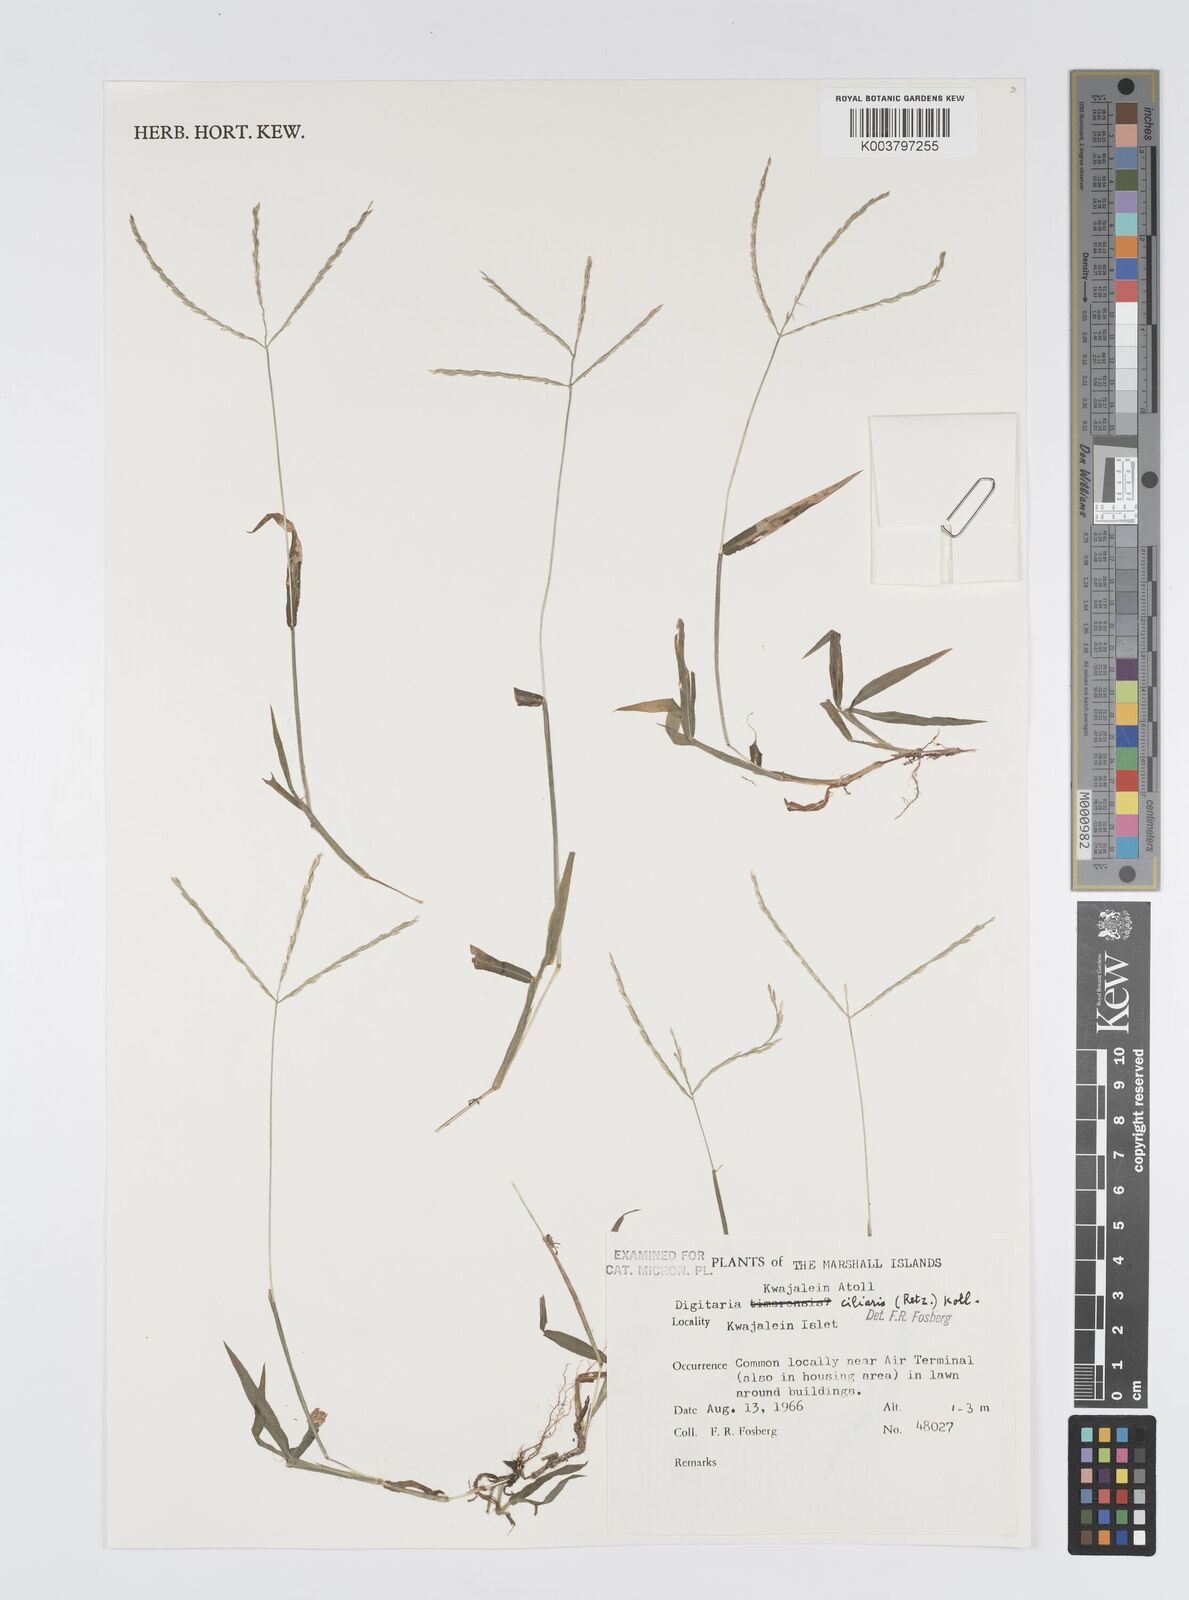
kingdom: Plantae
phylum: Tracheophyta
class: Liliopsida
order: Poales
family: Poaceae
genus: Digitaria
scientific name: Digitaria ciliaris
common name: Tropical finger-grass
